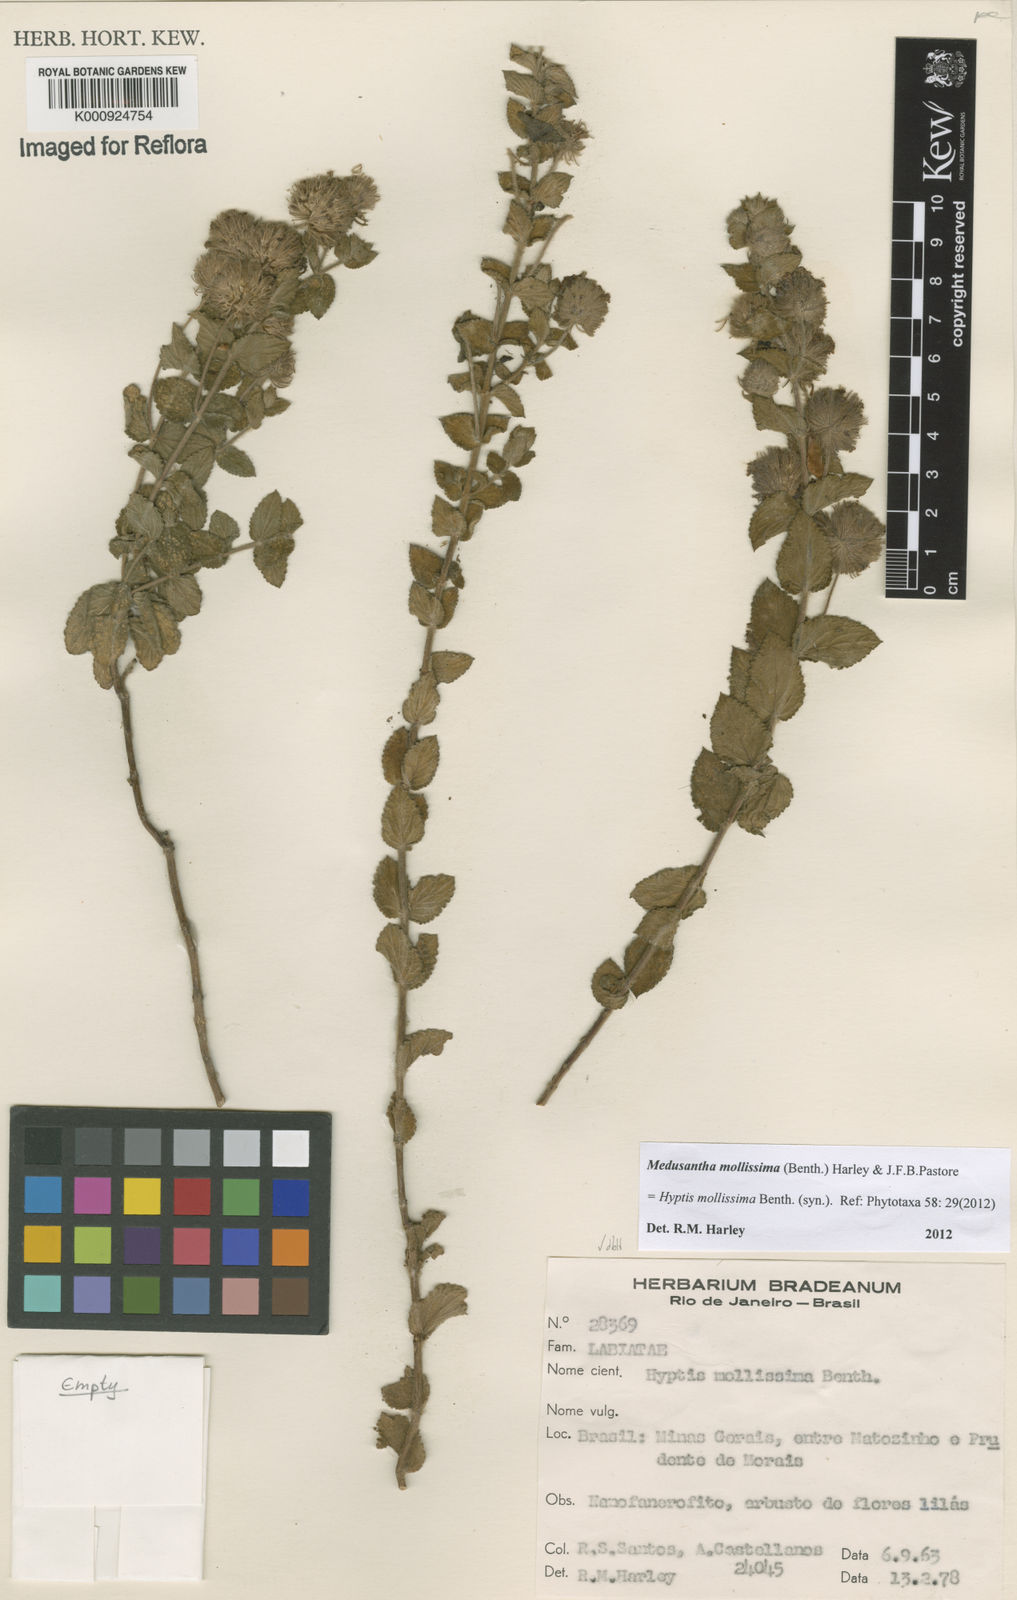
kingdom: Plantae
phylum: Tracheophyta
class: Magnoliopsida
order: Lamiales
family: Lamiaceae
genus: Medusantha
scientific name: Medusantha mollissima
